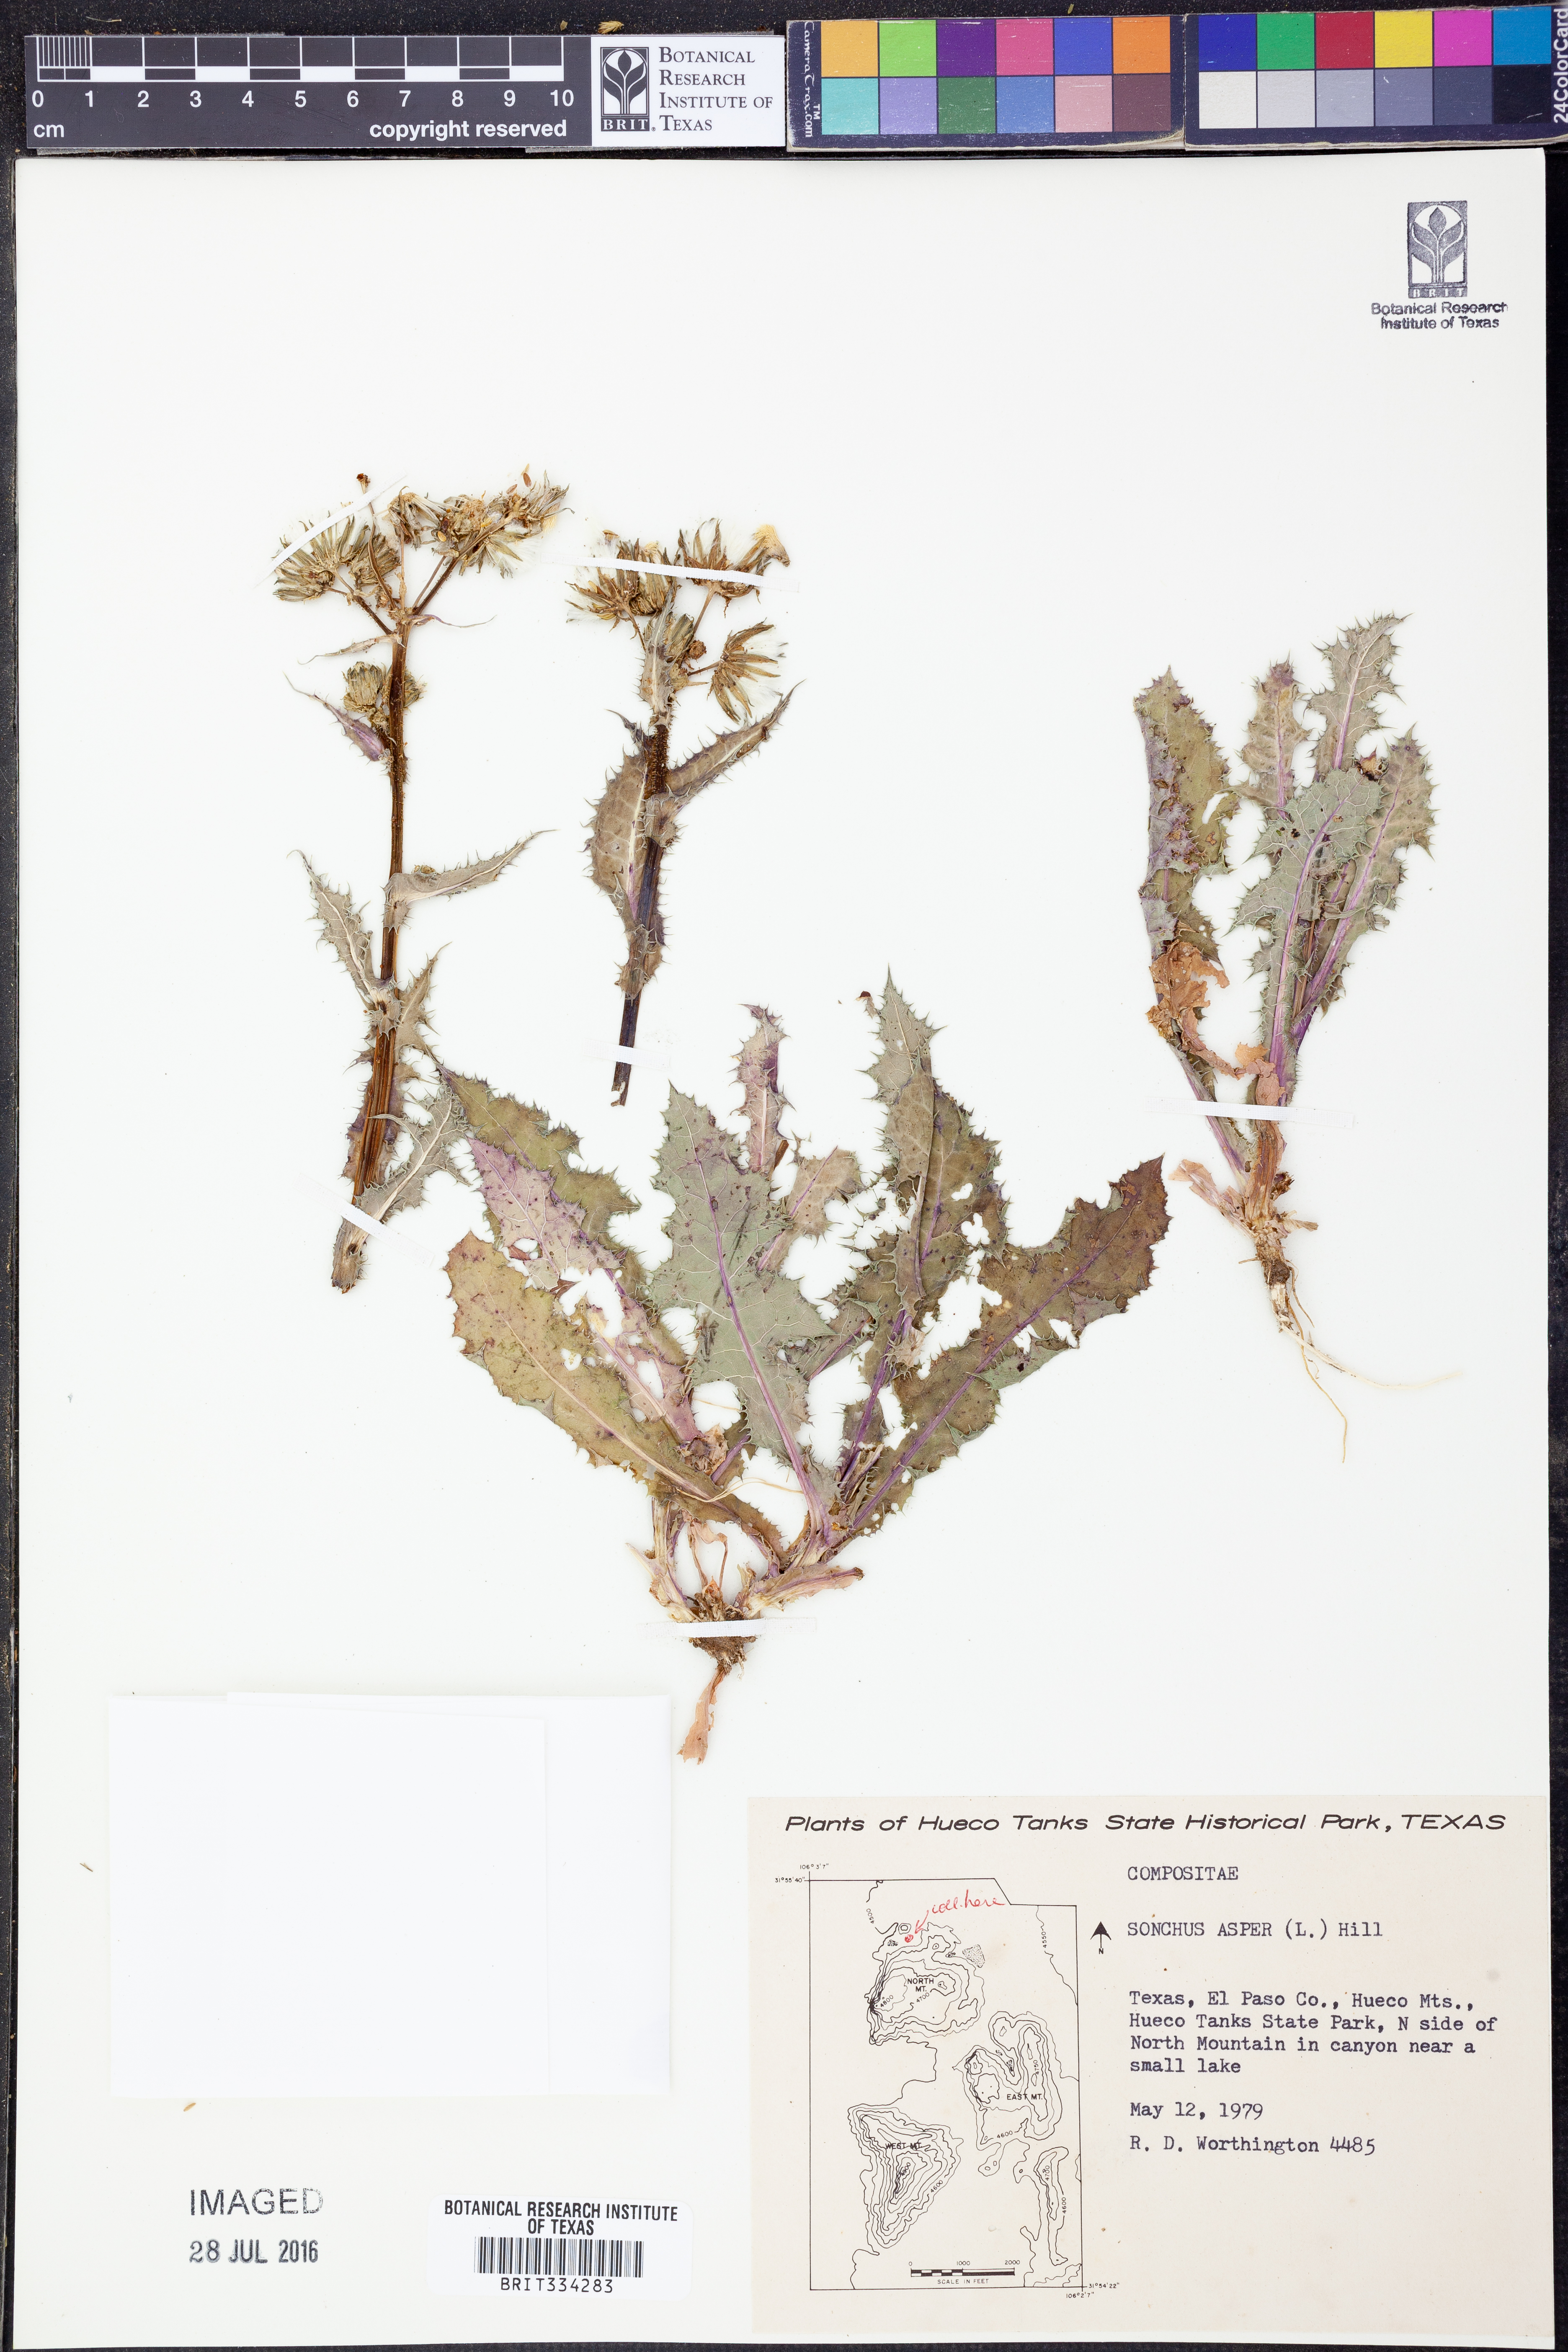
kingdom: Plantae
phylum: Tracheophyta
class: Magnoliopsida
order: Asterales
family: Asteraceae
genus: Sonchus
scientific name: Sonchus asper
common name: Prickly sow-thistle
